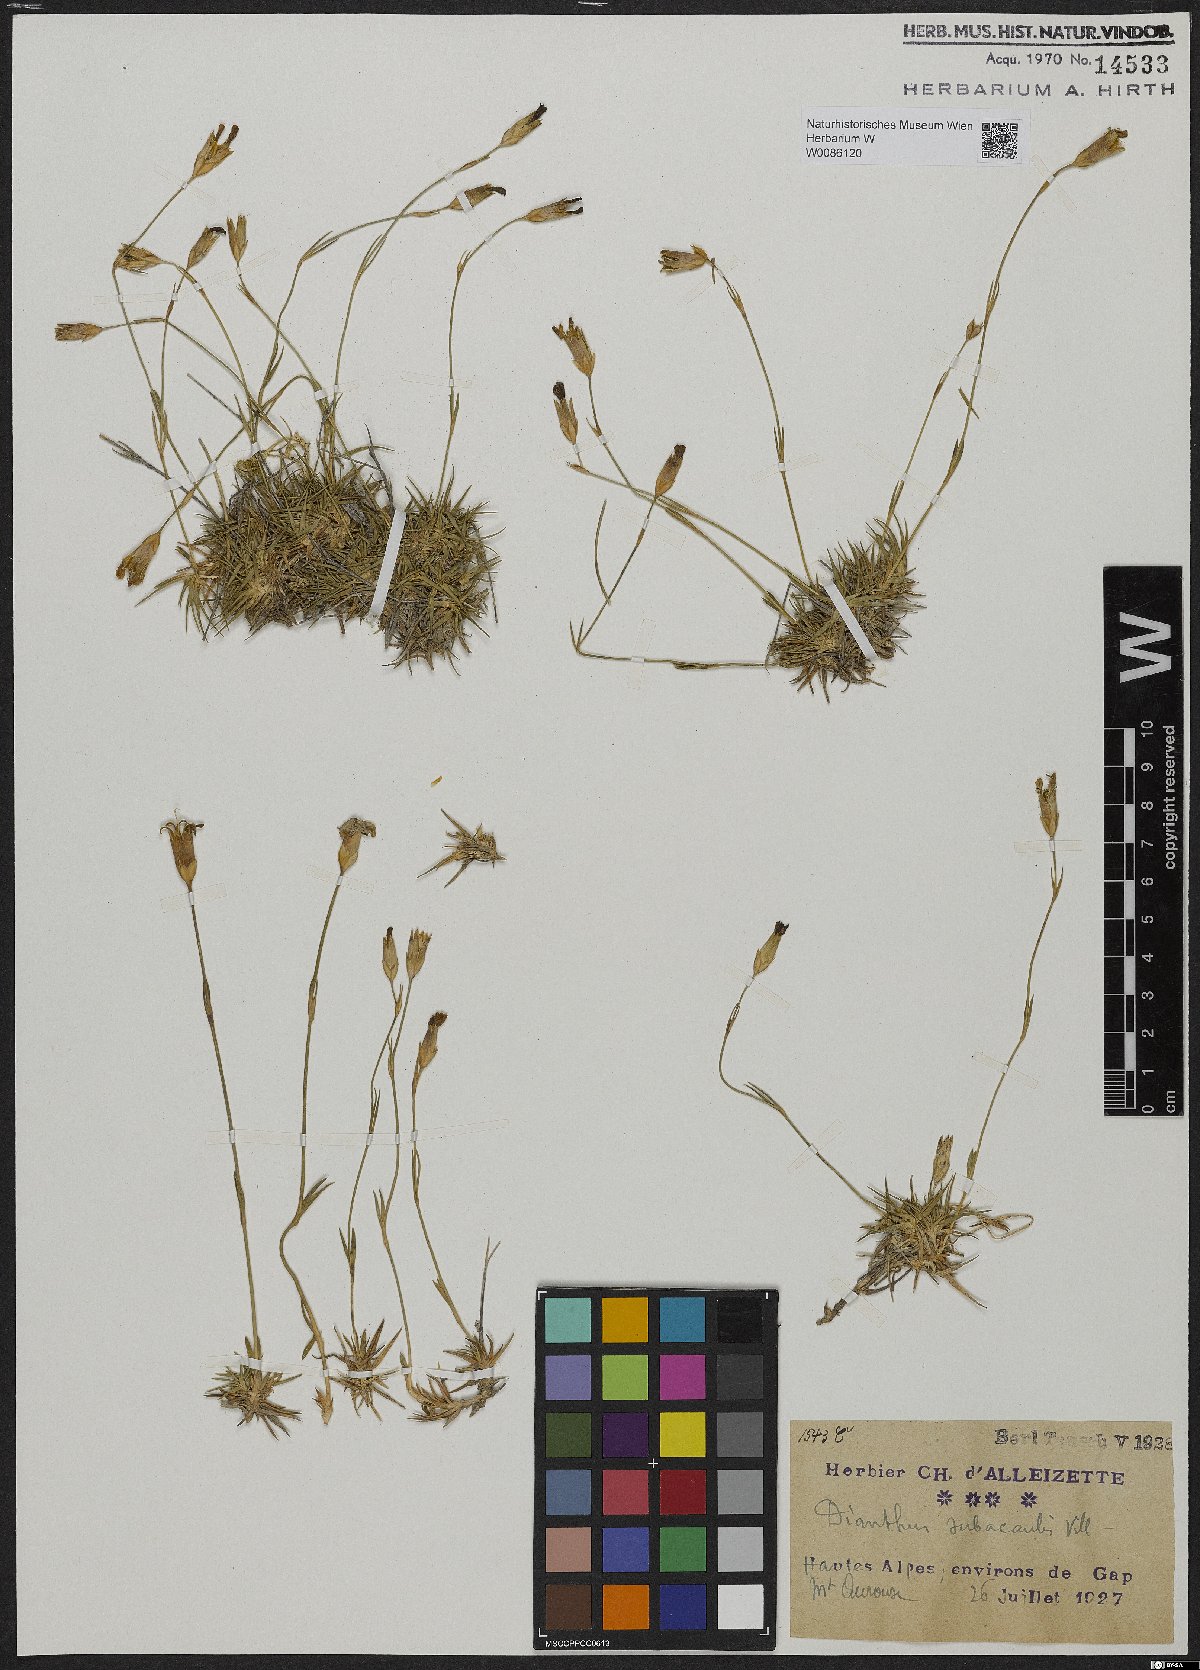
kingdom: Plantae
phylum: Tracheophyta
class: Magnoliopsida
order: Caryophyllales
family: Caryophyllaceae
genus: Dianthus
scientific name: Dianthus subacaulis
